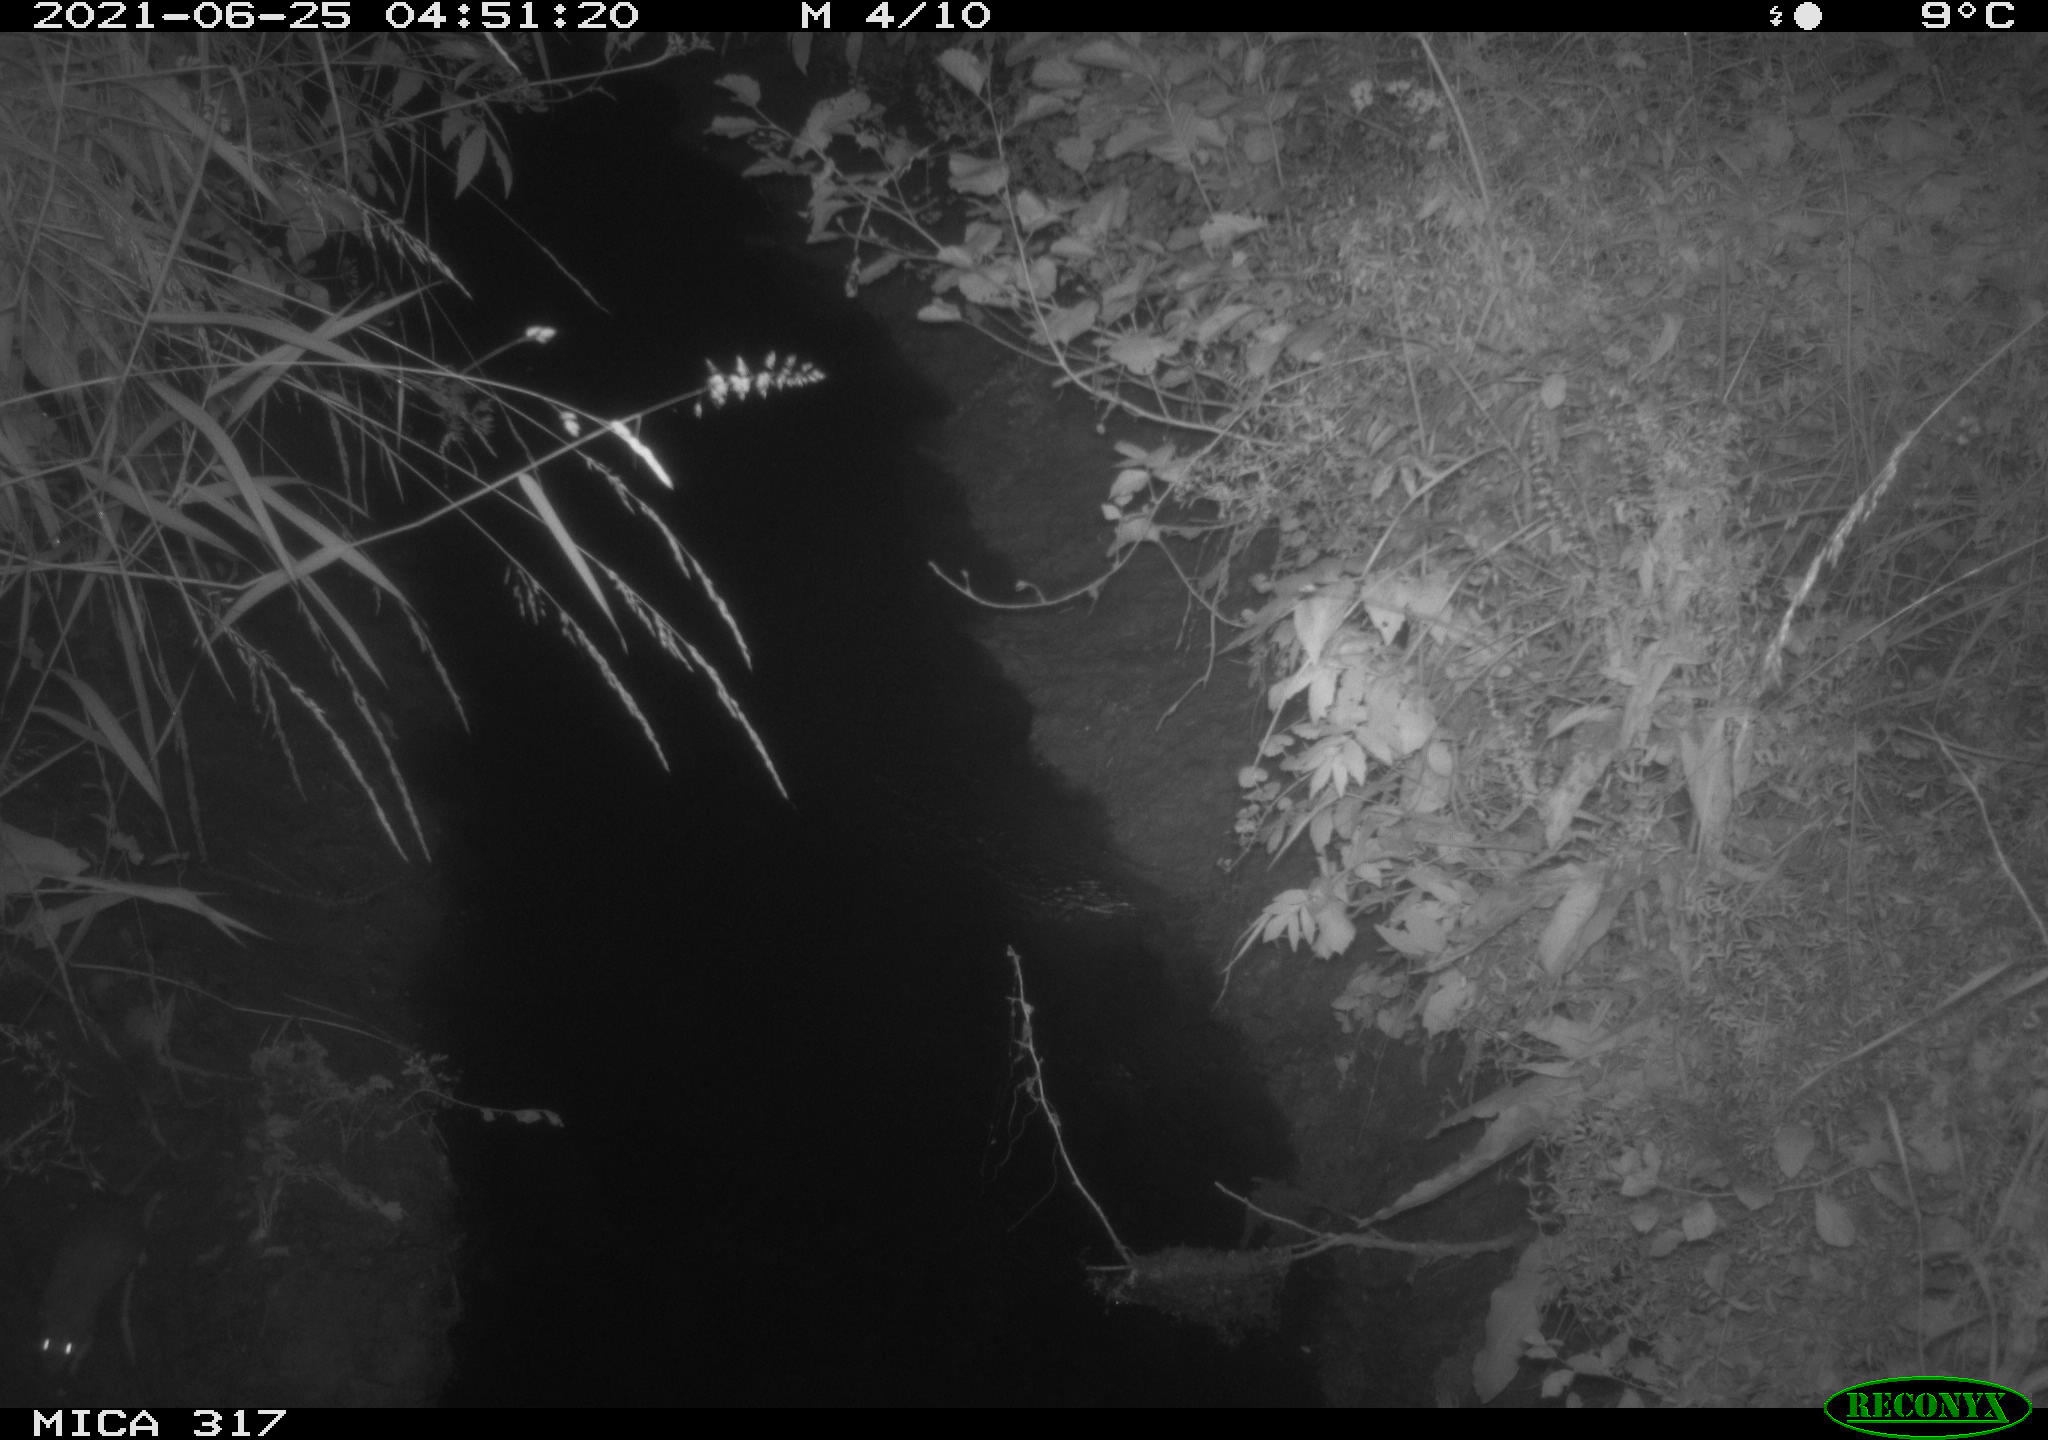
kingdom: Animalia
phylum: Chordata
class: Mammalia
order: Rodentia
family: Muridae
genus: Rattus
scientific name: Rattus norvegicus
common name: Brown rat
